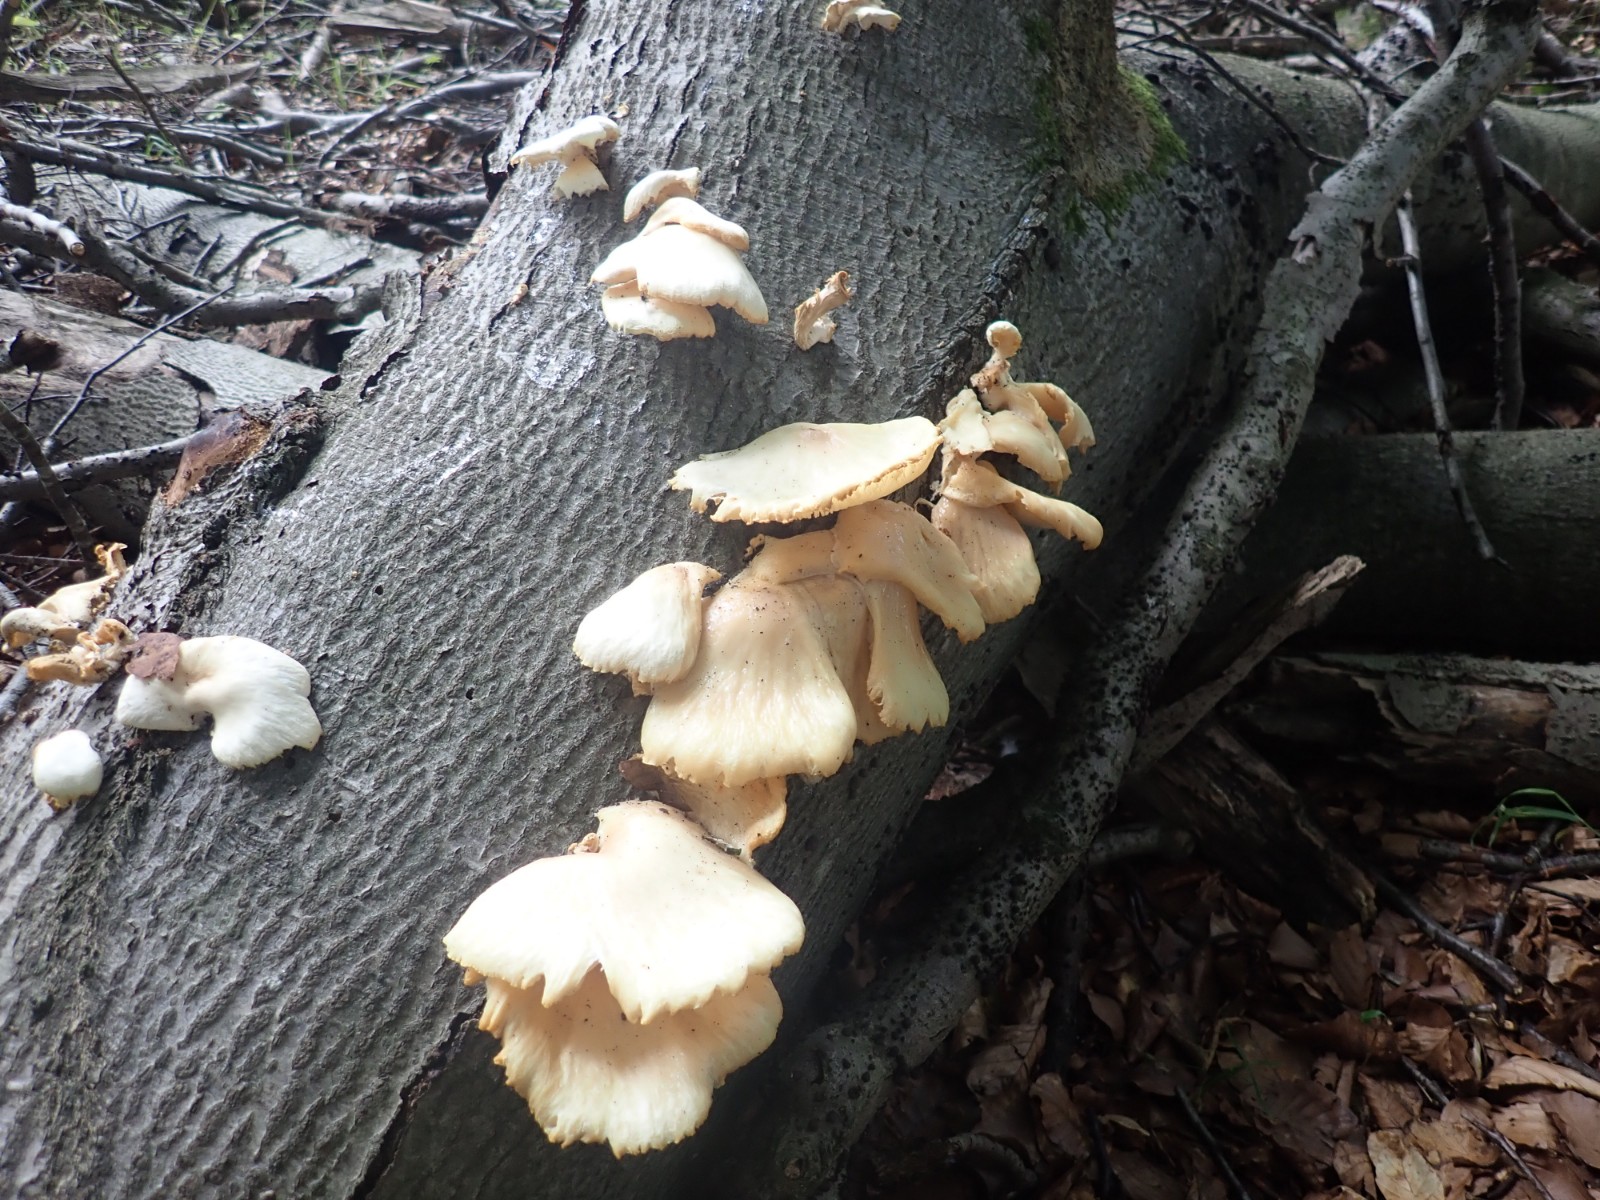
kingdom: Fungi
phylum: Basidiomycota
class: Agaricomycetes
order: Agaricales
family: Pleurotaceae
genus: Pleurotus
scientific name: Pleurotus pulmonarius
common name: sommer-østershat
